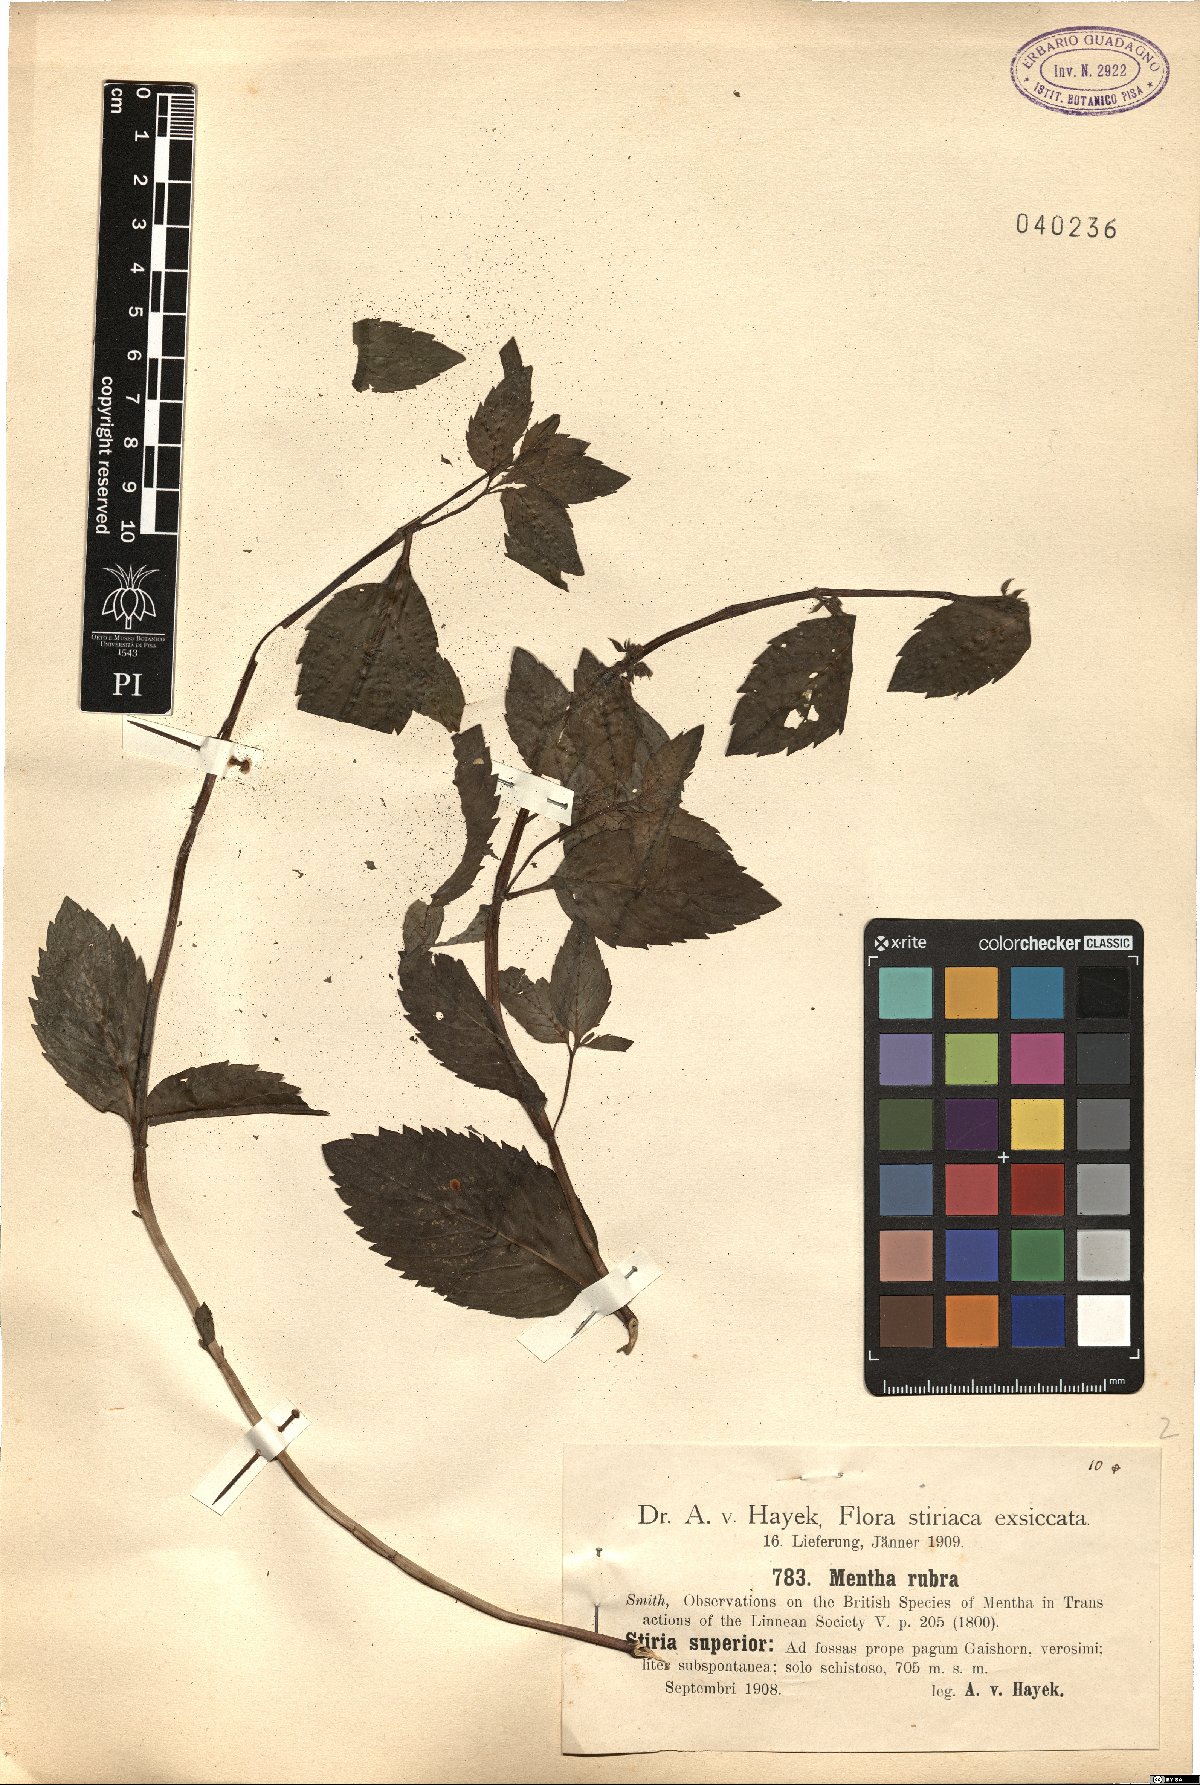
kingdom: Plantae
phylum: Tracheophyta
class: Magnoliopsida
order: Lamiales
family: Lamiaceae
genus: Mentha
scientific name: Mentha wirtgeniana
